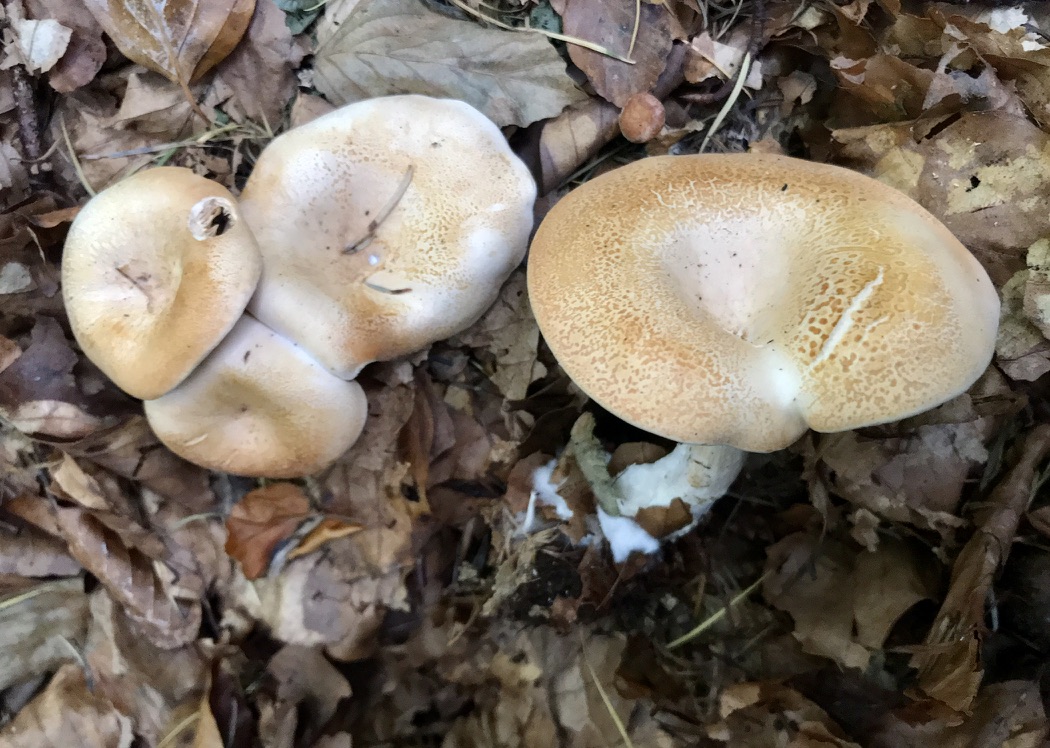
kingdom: Fungi
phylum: Basidiomycota
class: Agaricomycetes
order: Agaricales
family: Tricholomataceae
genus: Paralepista
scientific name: Paralepista gilva
